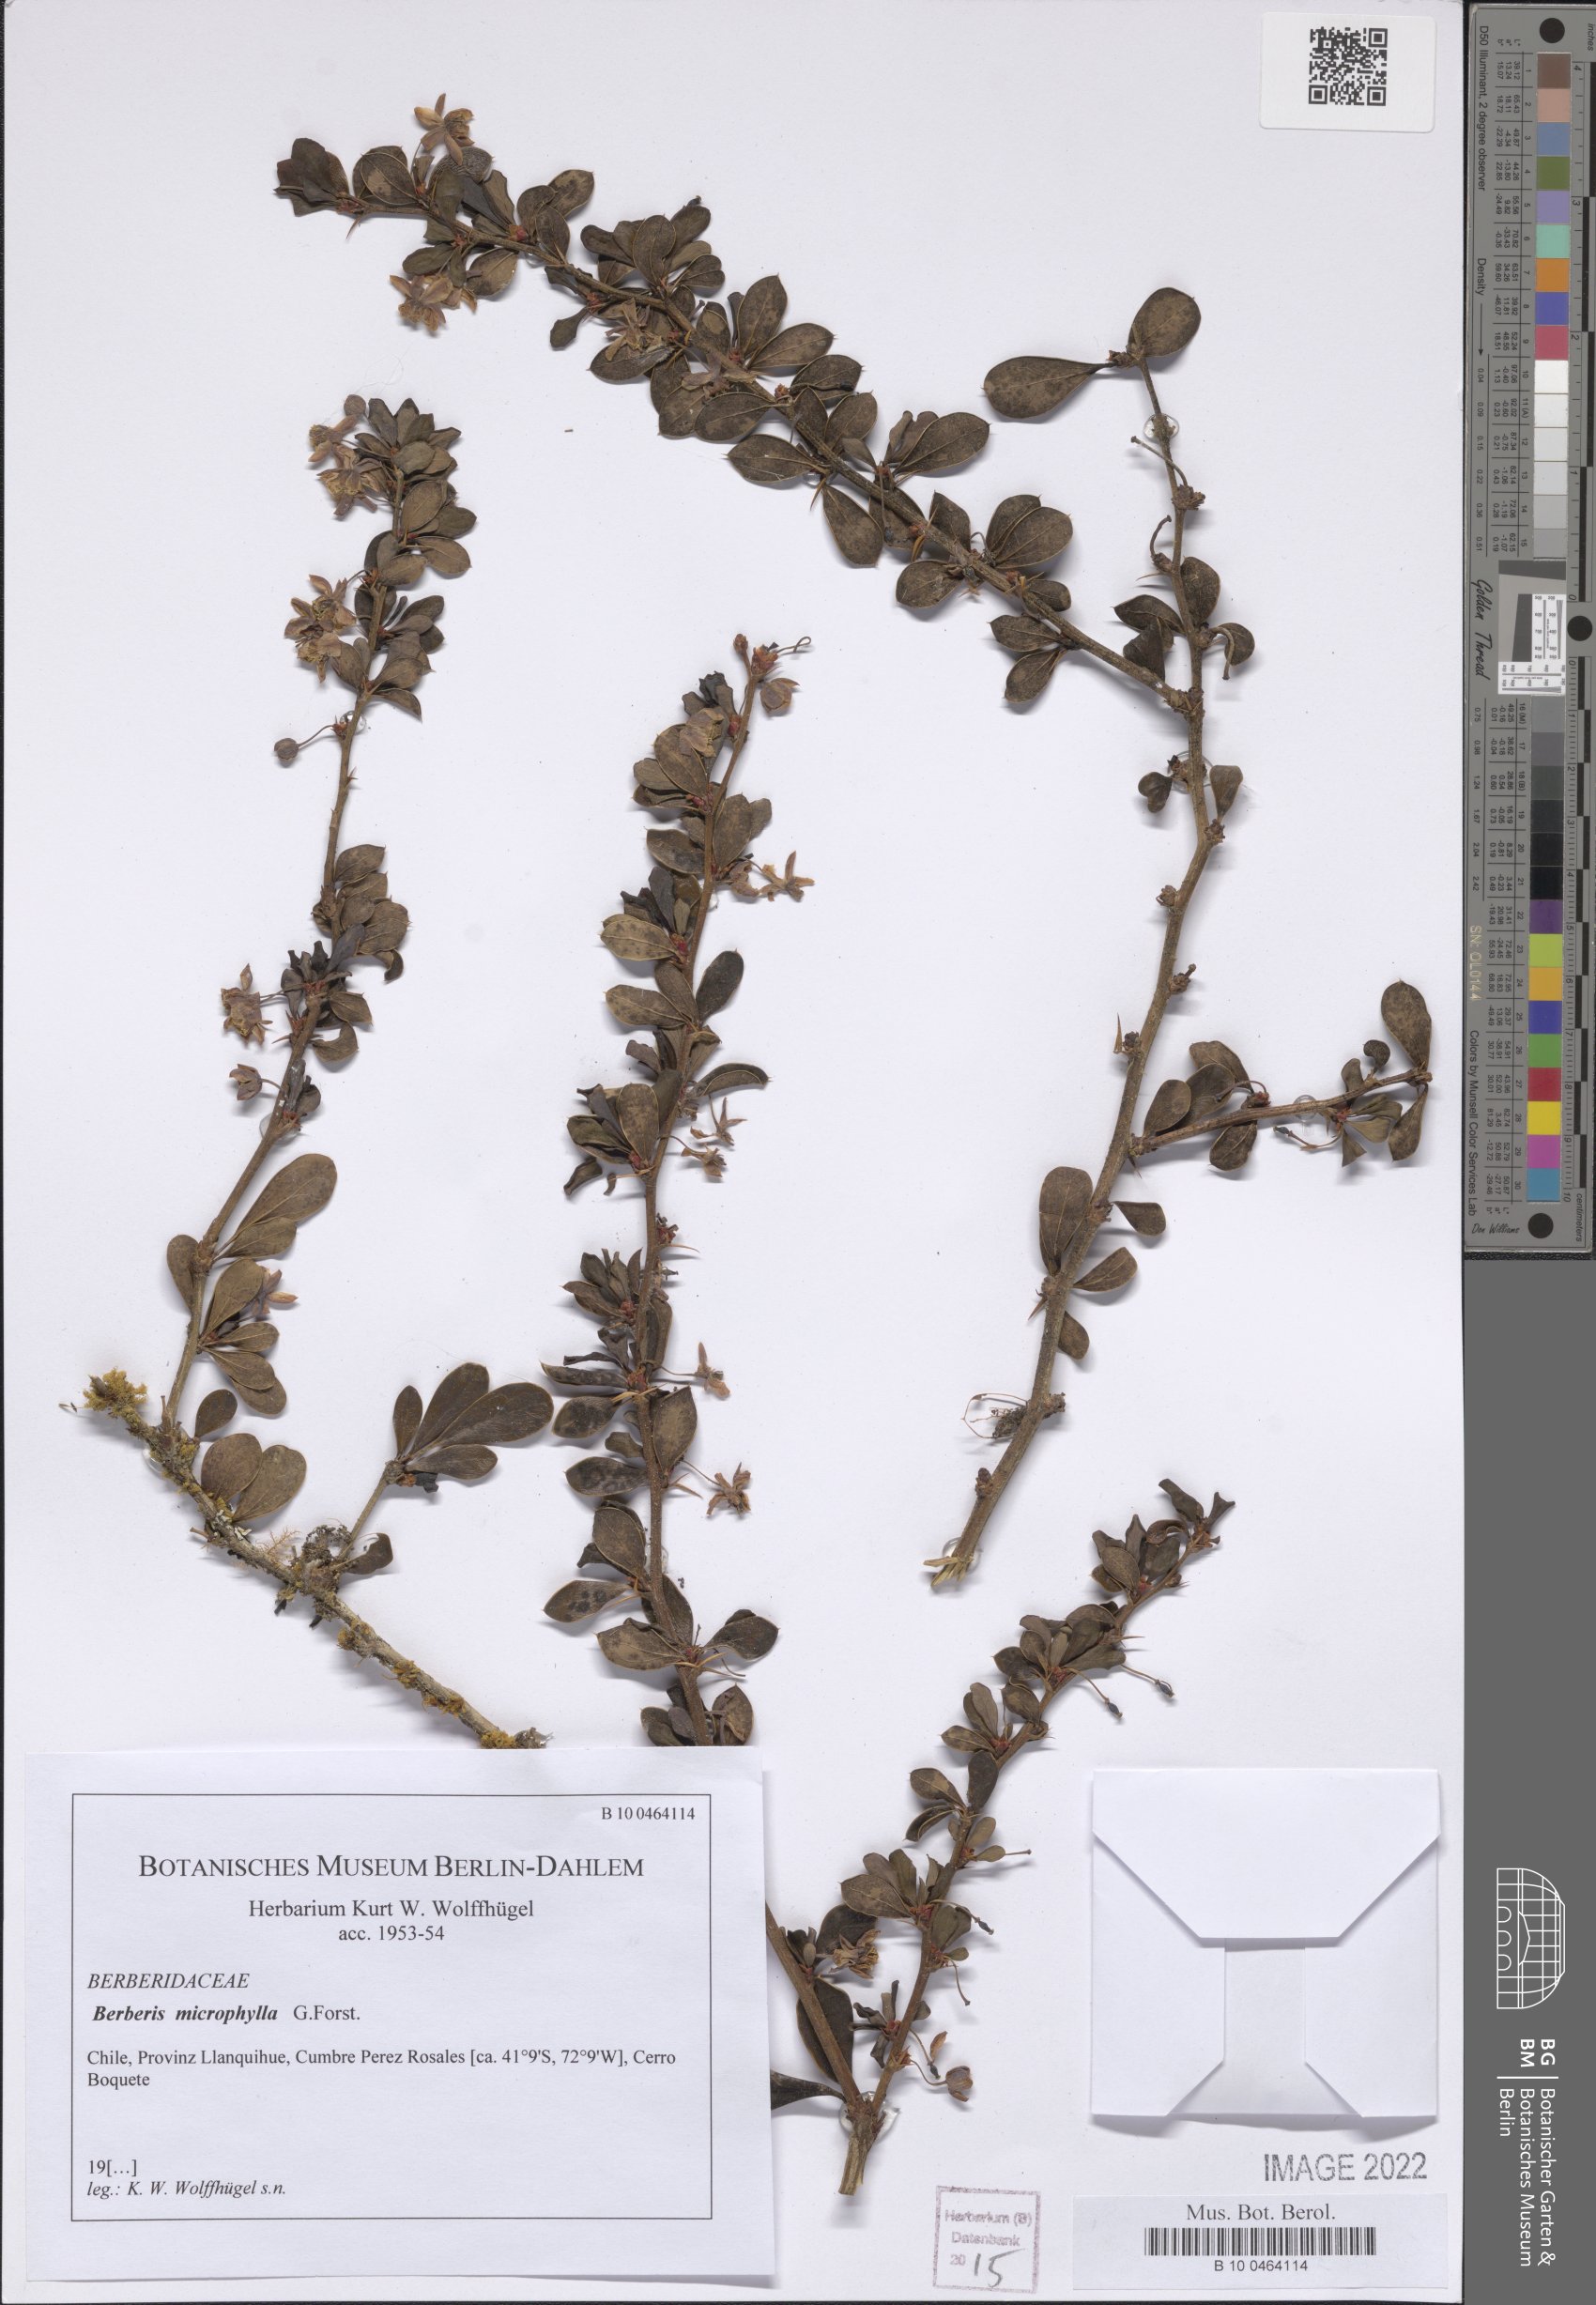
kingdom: Plantae
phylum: Tracheophyta
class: Magnoliopsida
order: Ranunculales
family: Berberidaceae
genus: Berberis
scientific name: Berberis microphylla
